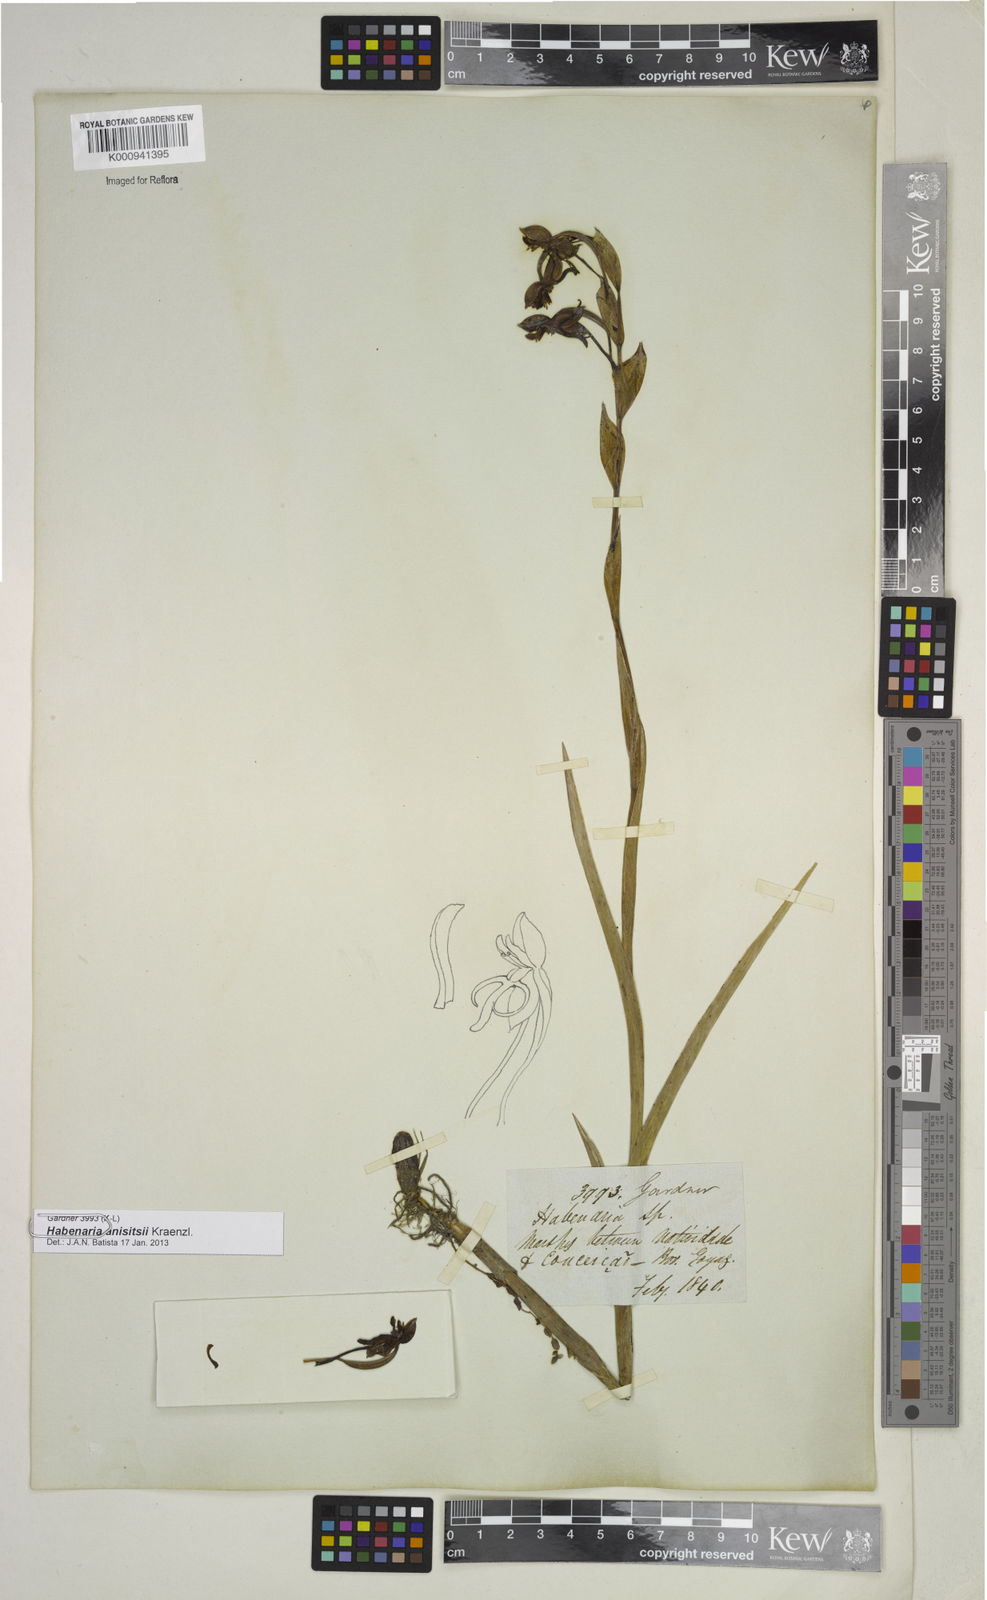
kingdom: Plantae
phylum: Tracheophyta
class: Liliopsida
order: Asparagales
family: Orchidaceae
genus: Habenaria
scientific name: Habenaria anisitsii
